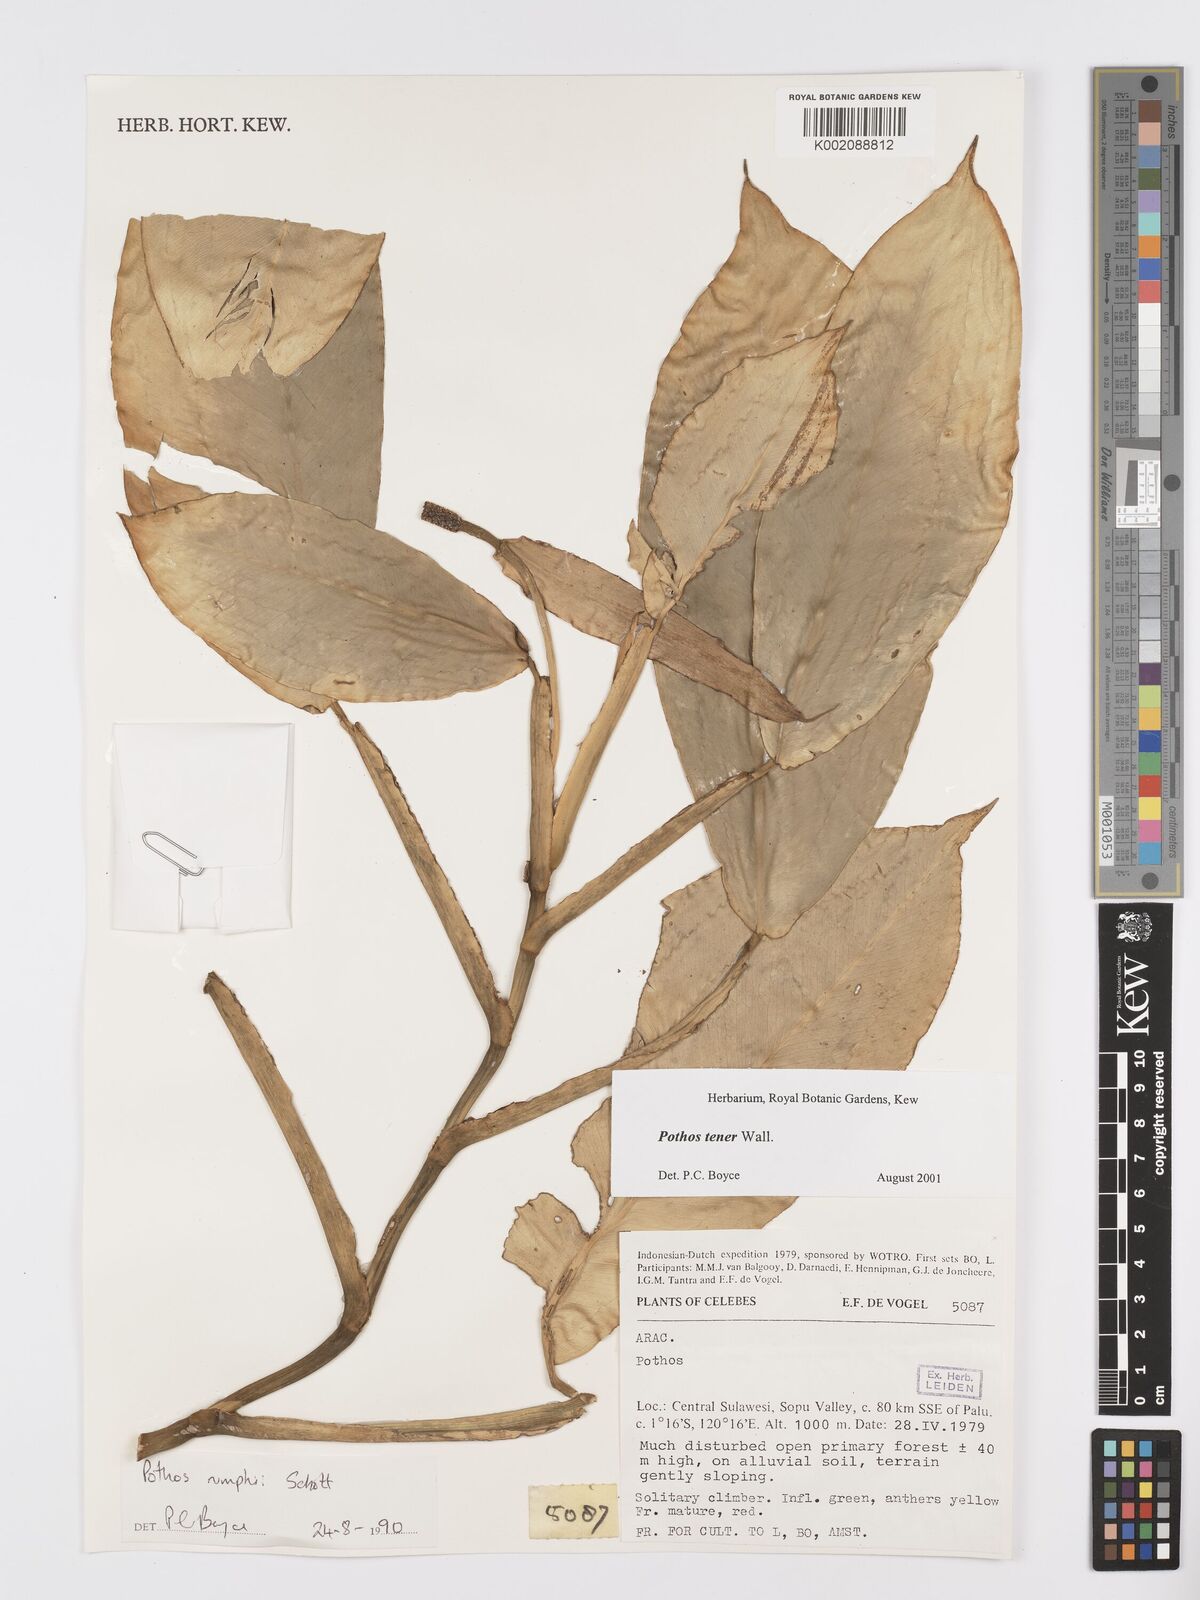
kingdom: Plantae
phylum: Tracheophyta
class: Liliopsida
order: Alismatales
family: Araceae
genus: Pothos
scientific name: Pothos tener
